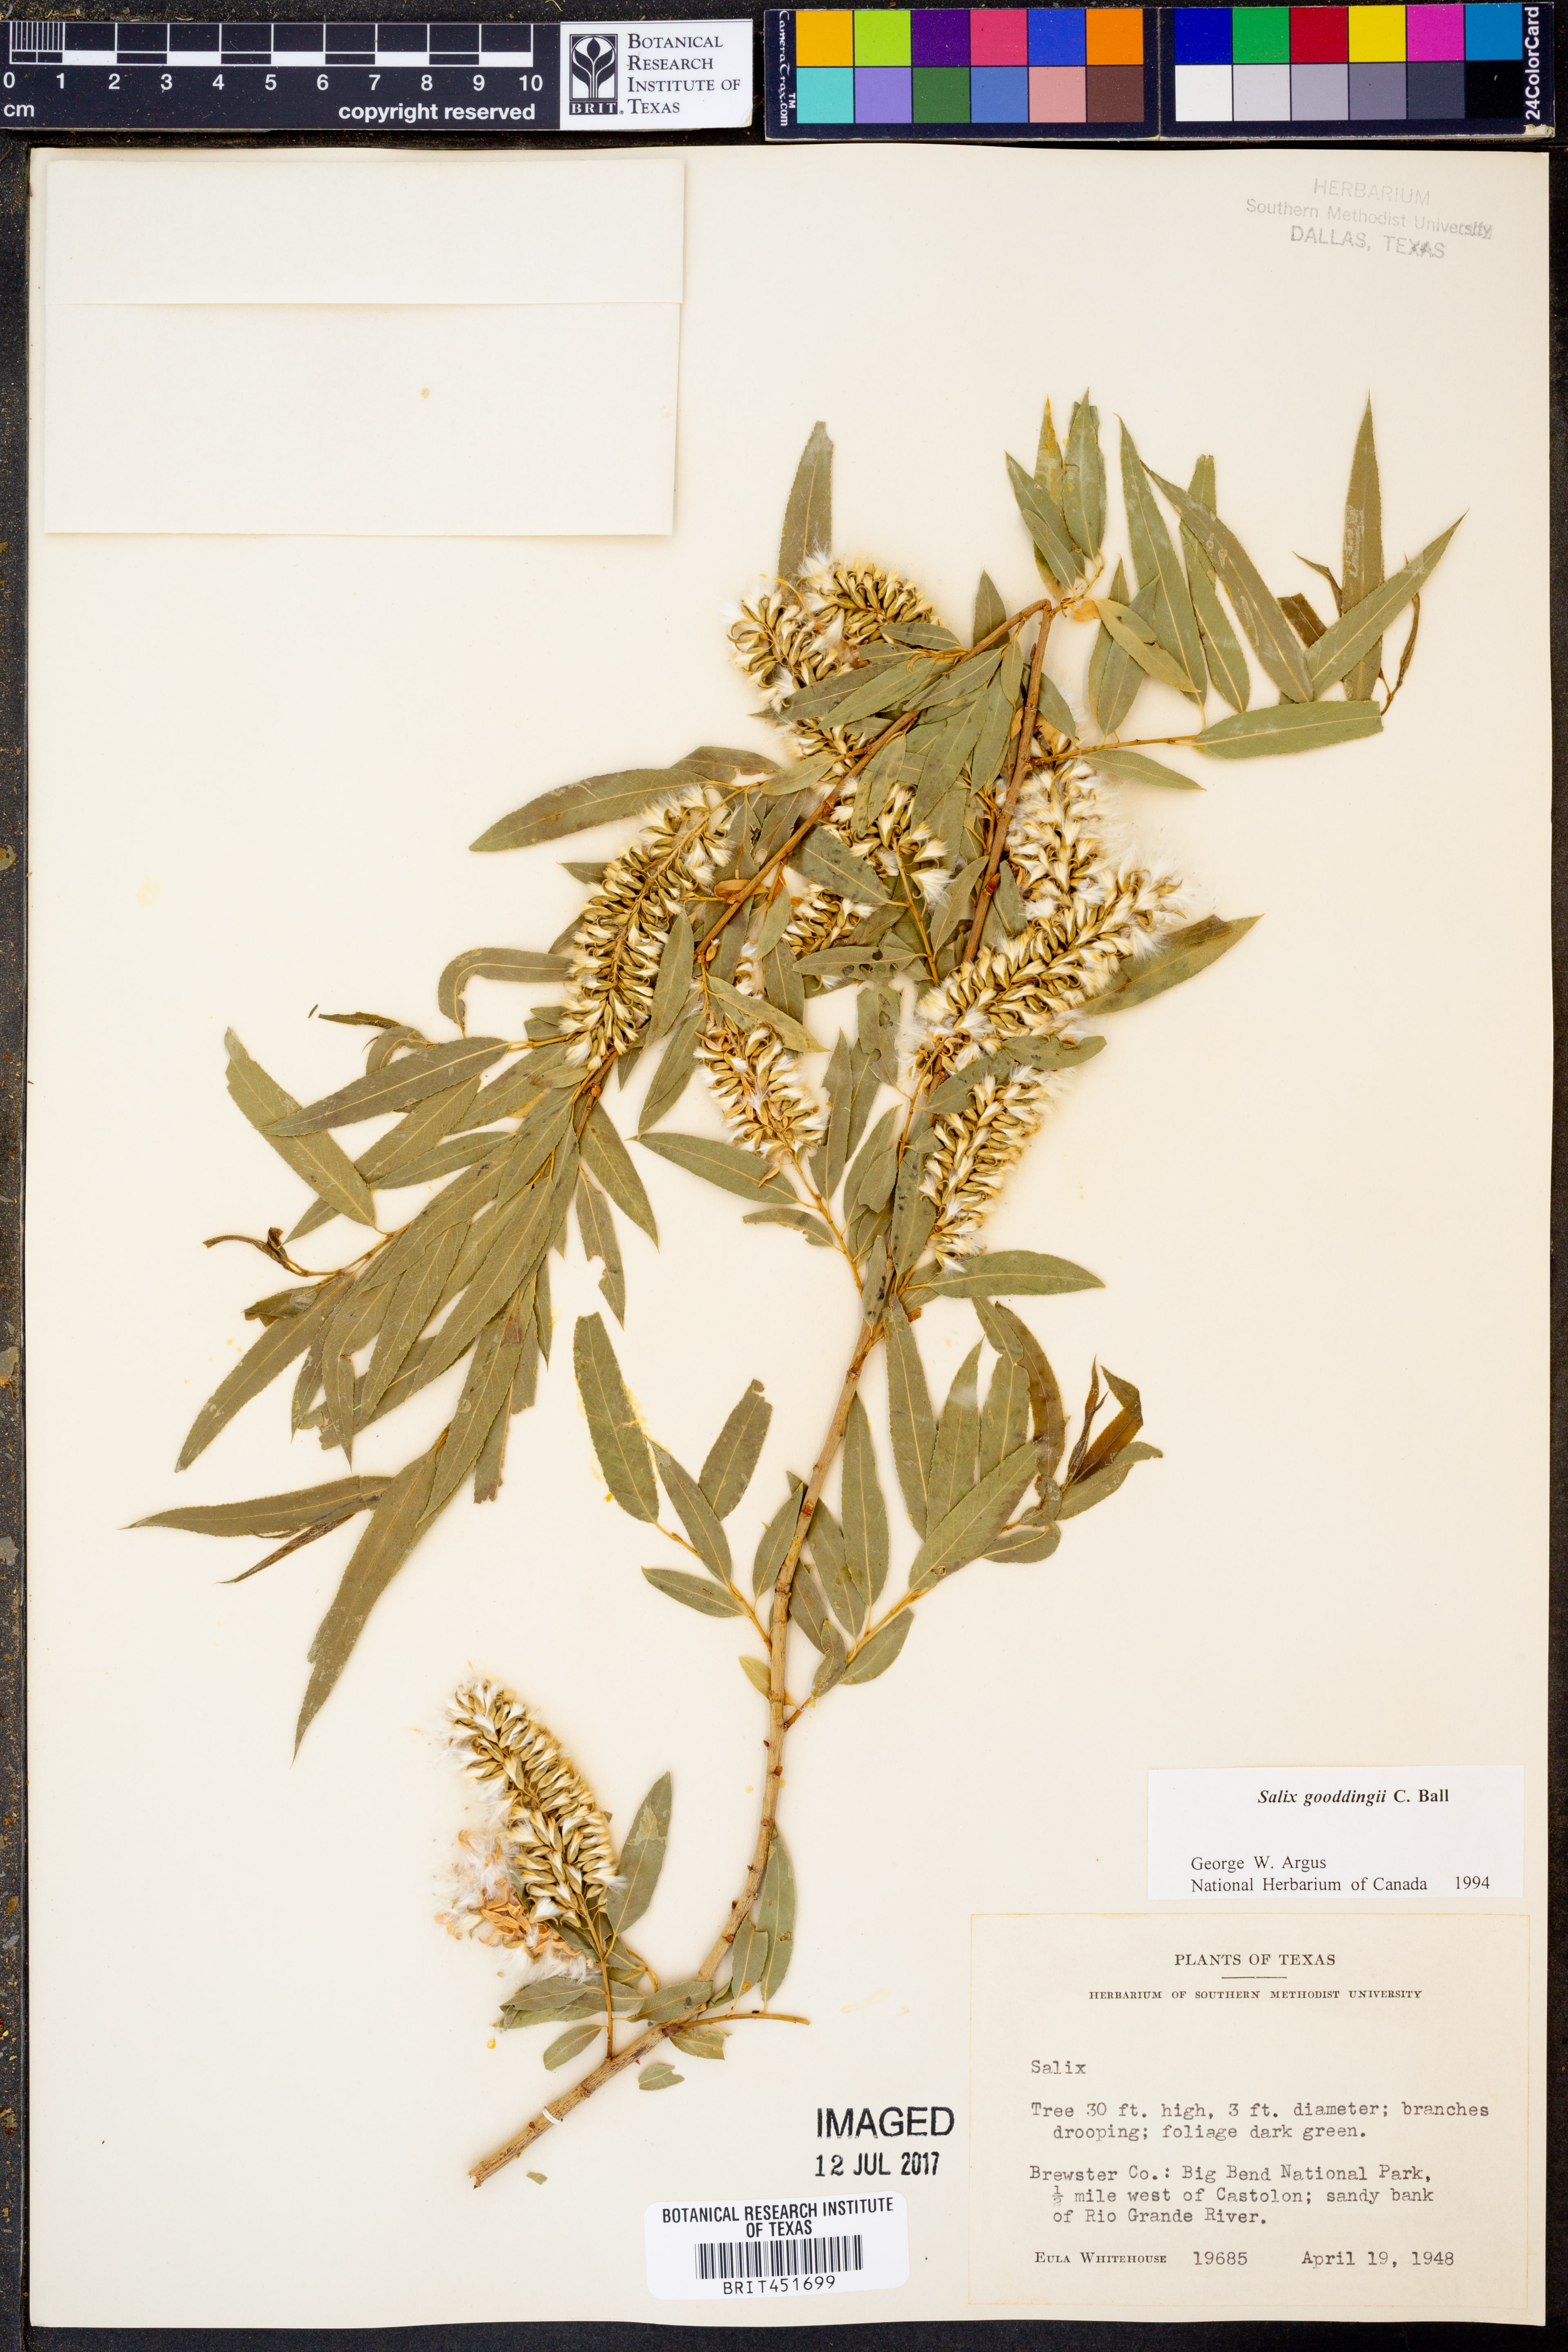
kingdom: Plantae
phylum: Tracheophyta
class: Magnoliopsida
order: Malpighiales
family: Salicaceae
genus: Salix
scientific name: Salix gooddingii
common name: Goodding's willow
